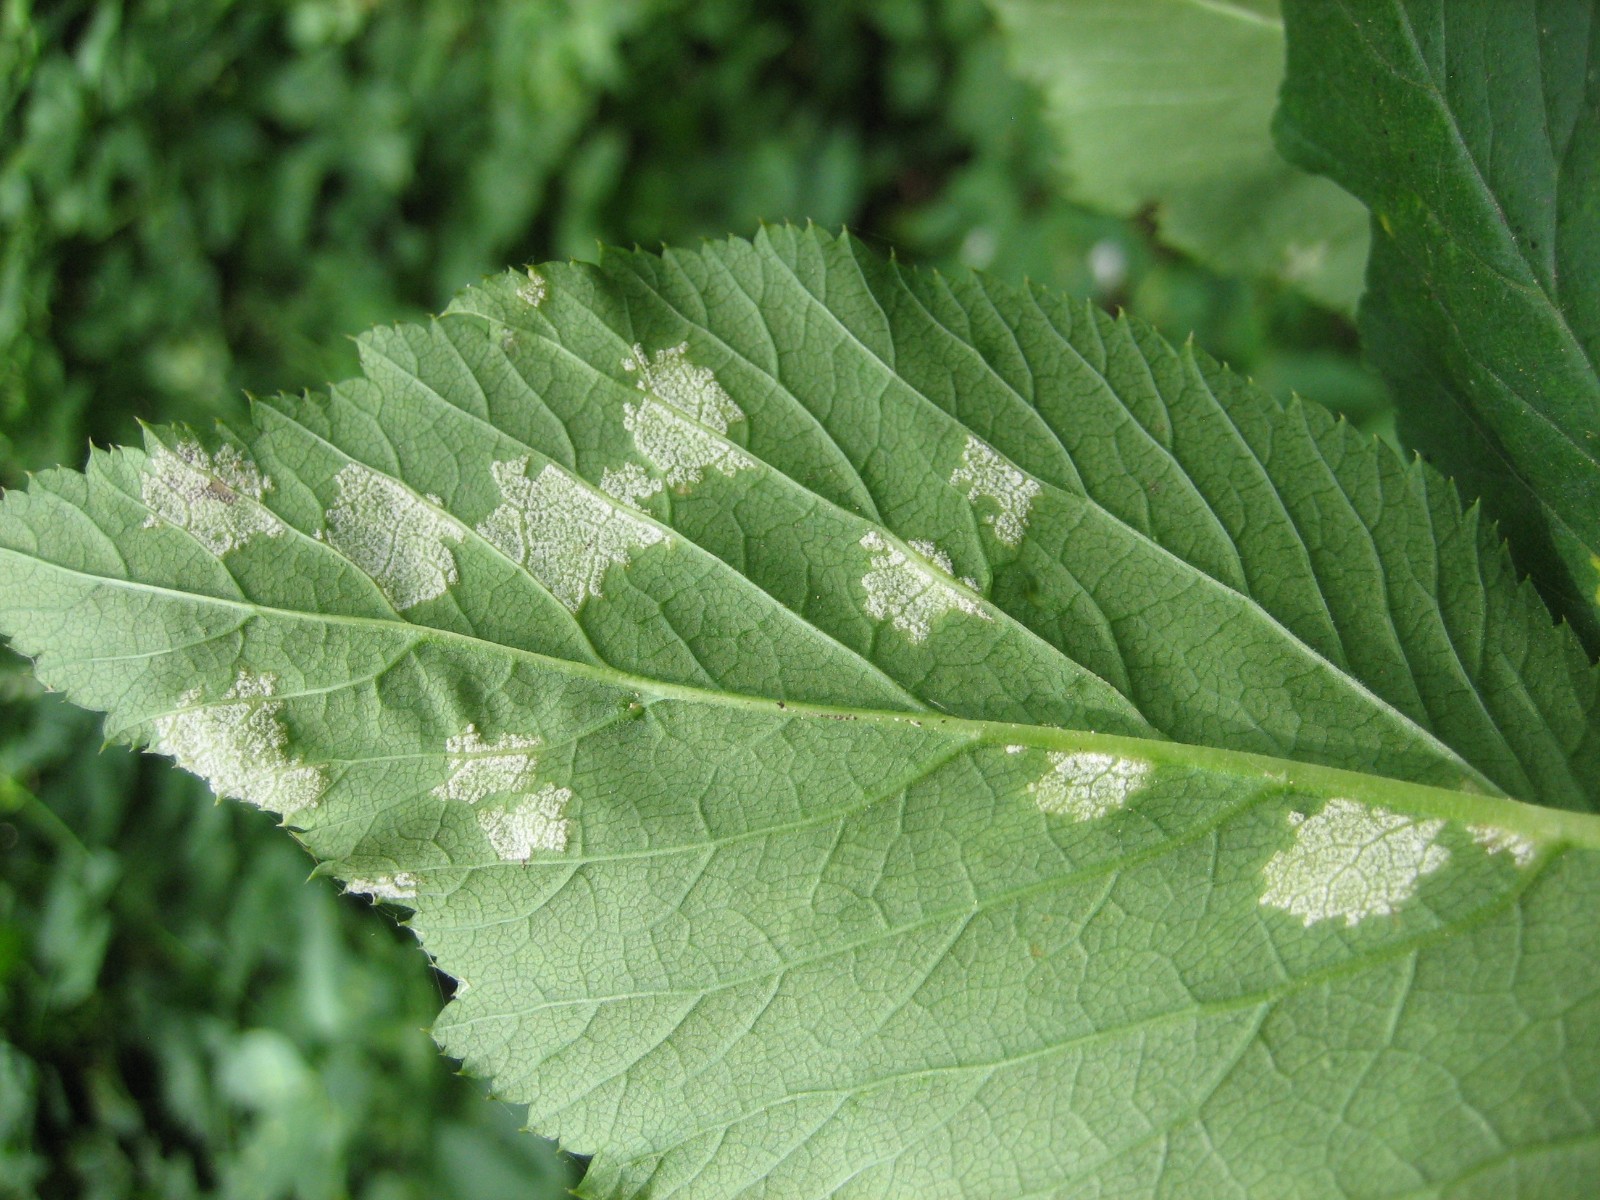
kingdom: Chromista
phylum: Oomycota
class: Peronosporea
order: Peronosporales
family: Peronosporaceae
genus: Peronospora
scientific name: Peronospora crustosa
